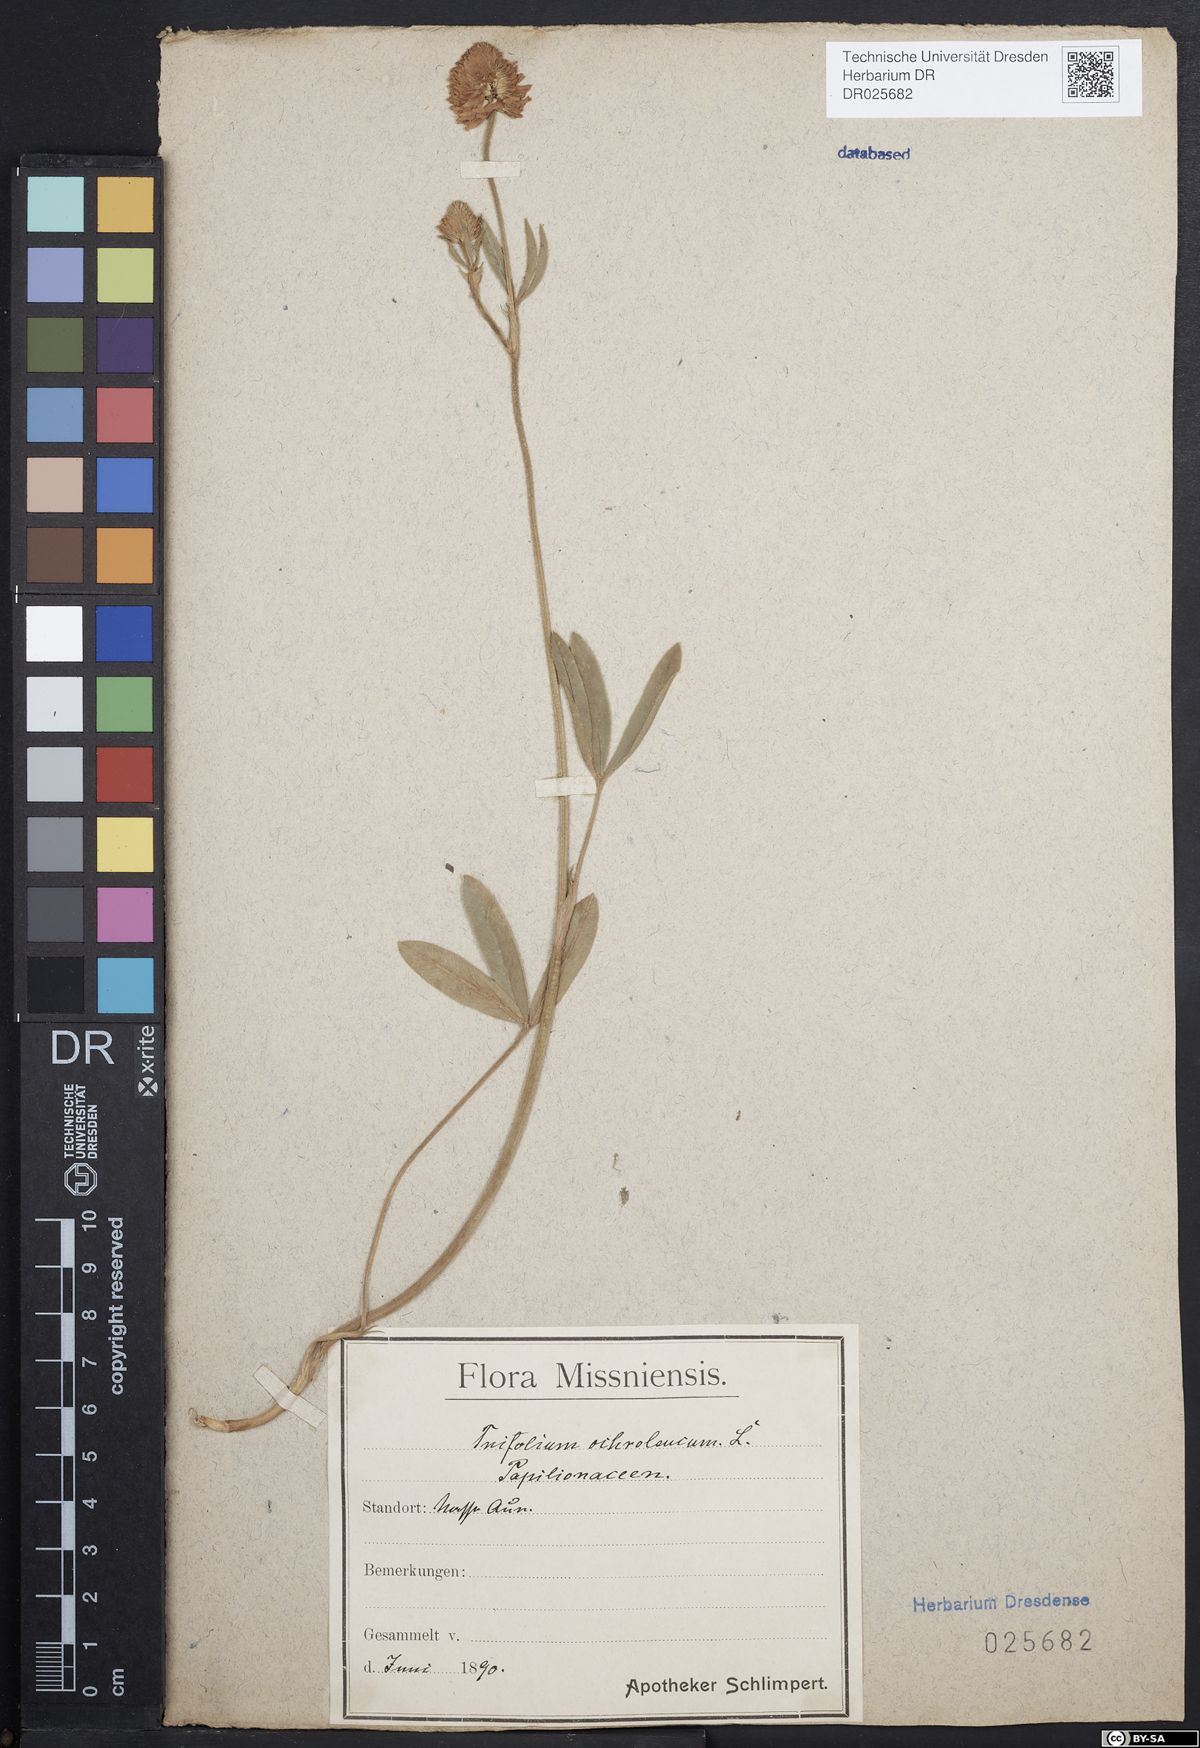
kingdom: Plantae
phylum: Tracheophyta
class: Magnoliopsida
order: Fabales
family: Fabaceae
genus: Trifolium
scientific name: Trifolium ochroleucon
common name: Sulphur clover
